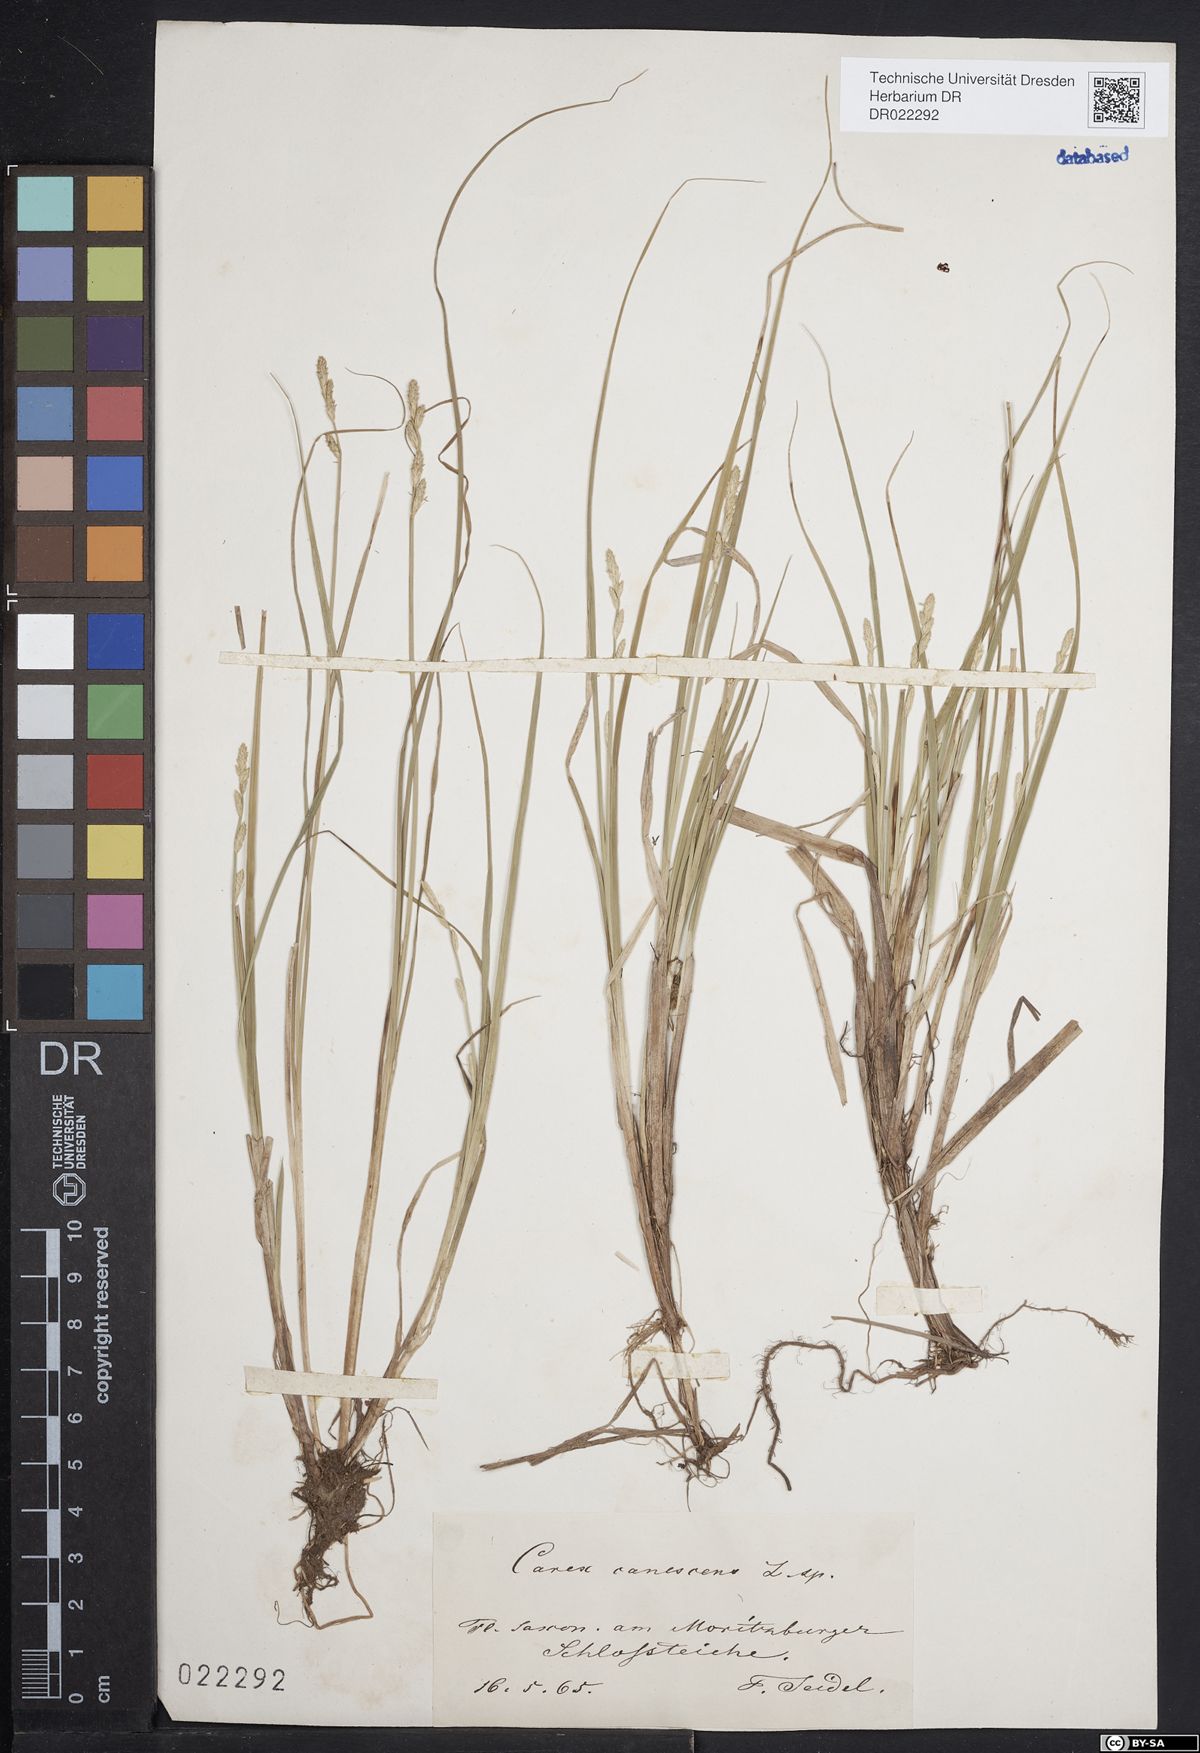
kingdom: Plantae
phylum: Tracheophyta
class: Liliopsida
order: Poales
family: Cyperaceae
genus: Carex
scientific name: Carex canescens
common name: White sedge
